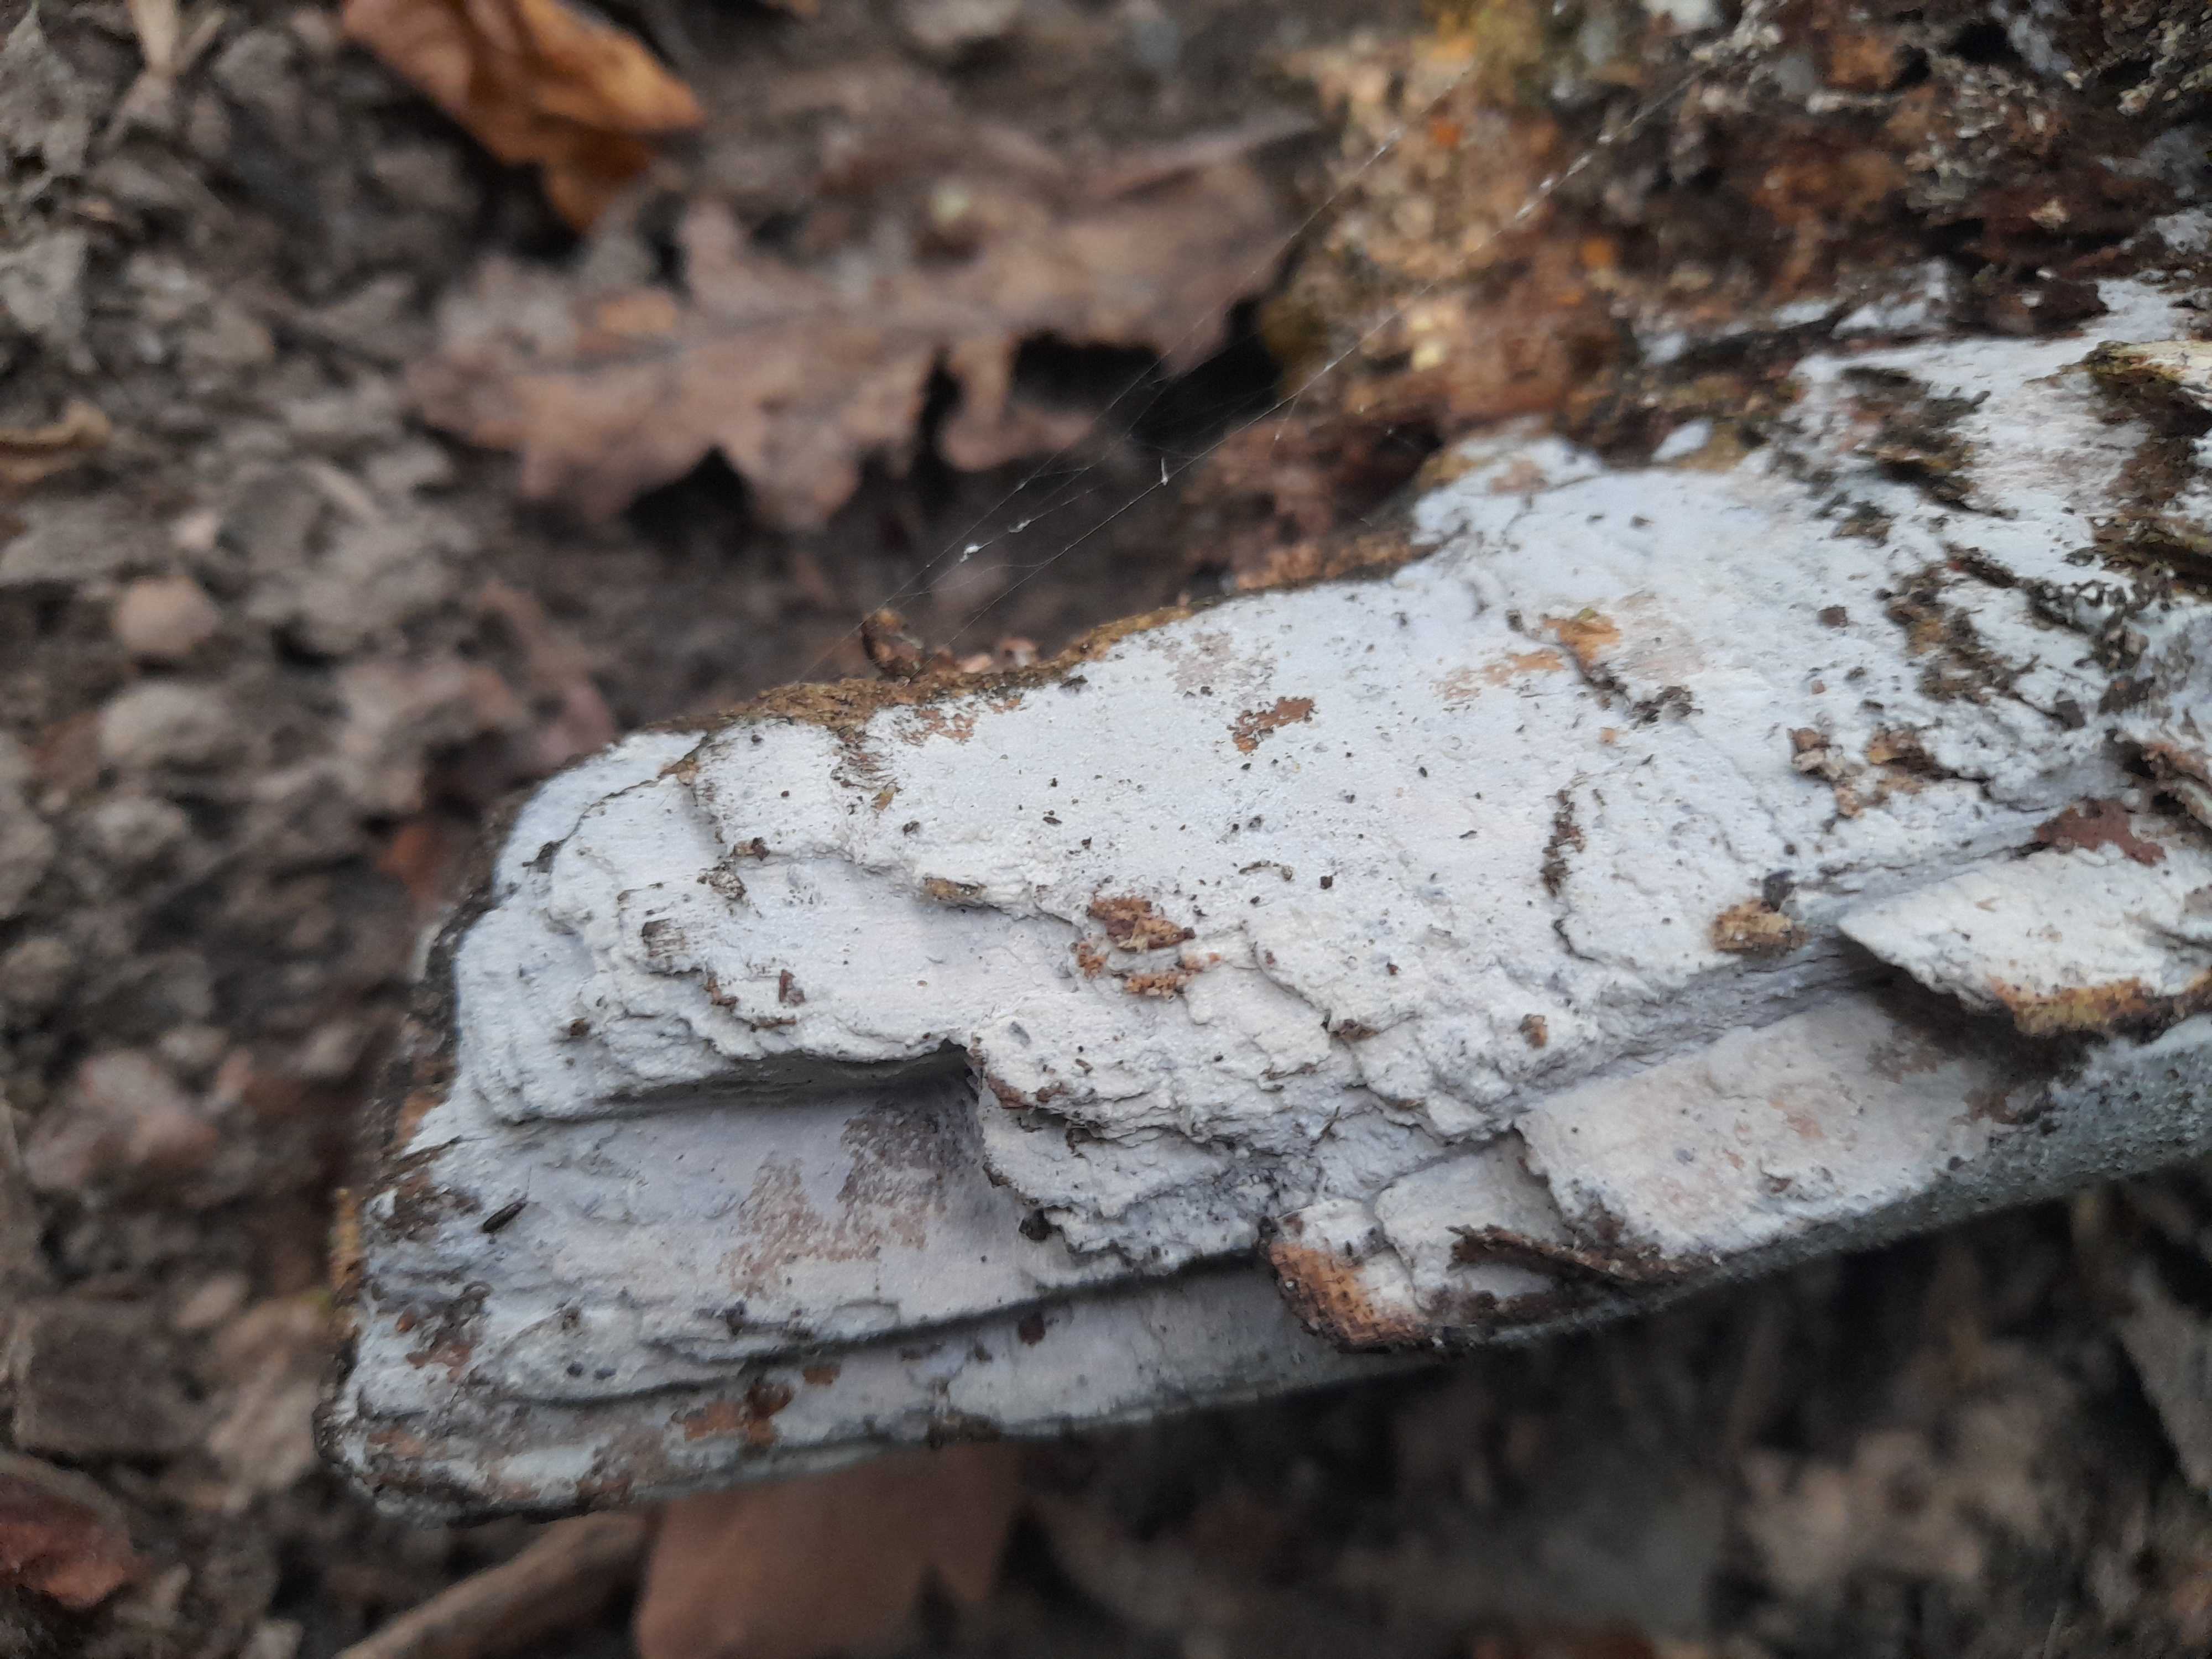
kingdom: Fungi
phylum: Basidiomycota
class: Agaricomycetes
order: Corticiales
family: Corticiaceae
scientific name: Corticiaceae
